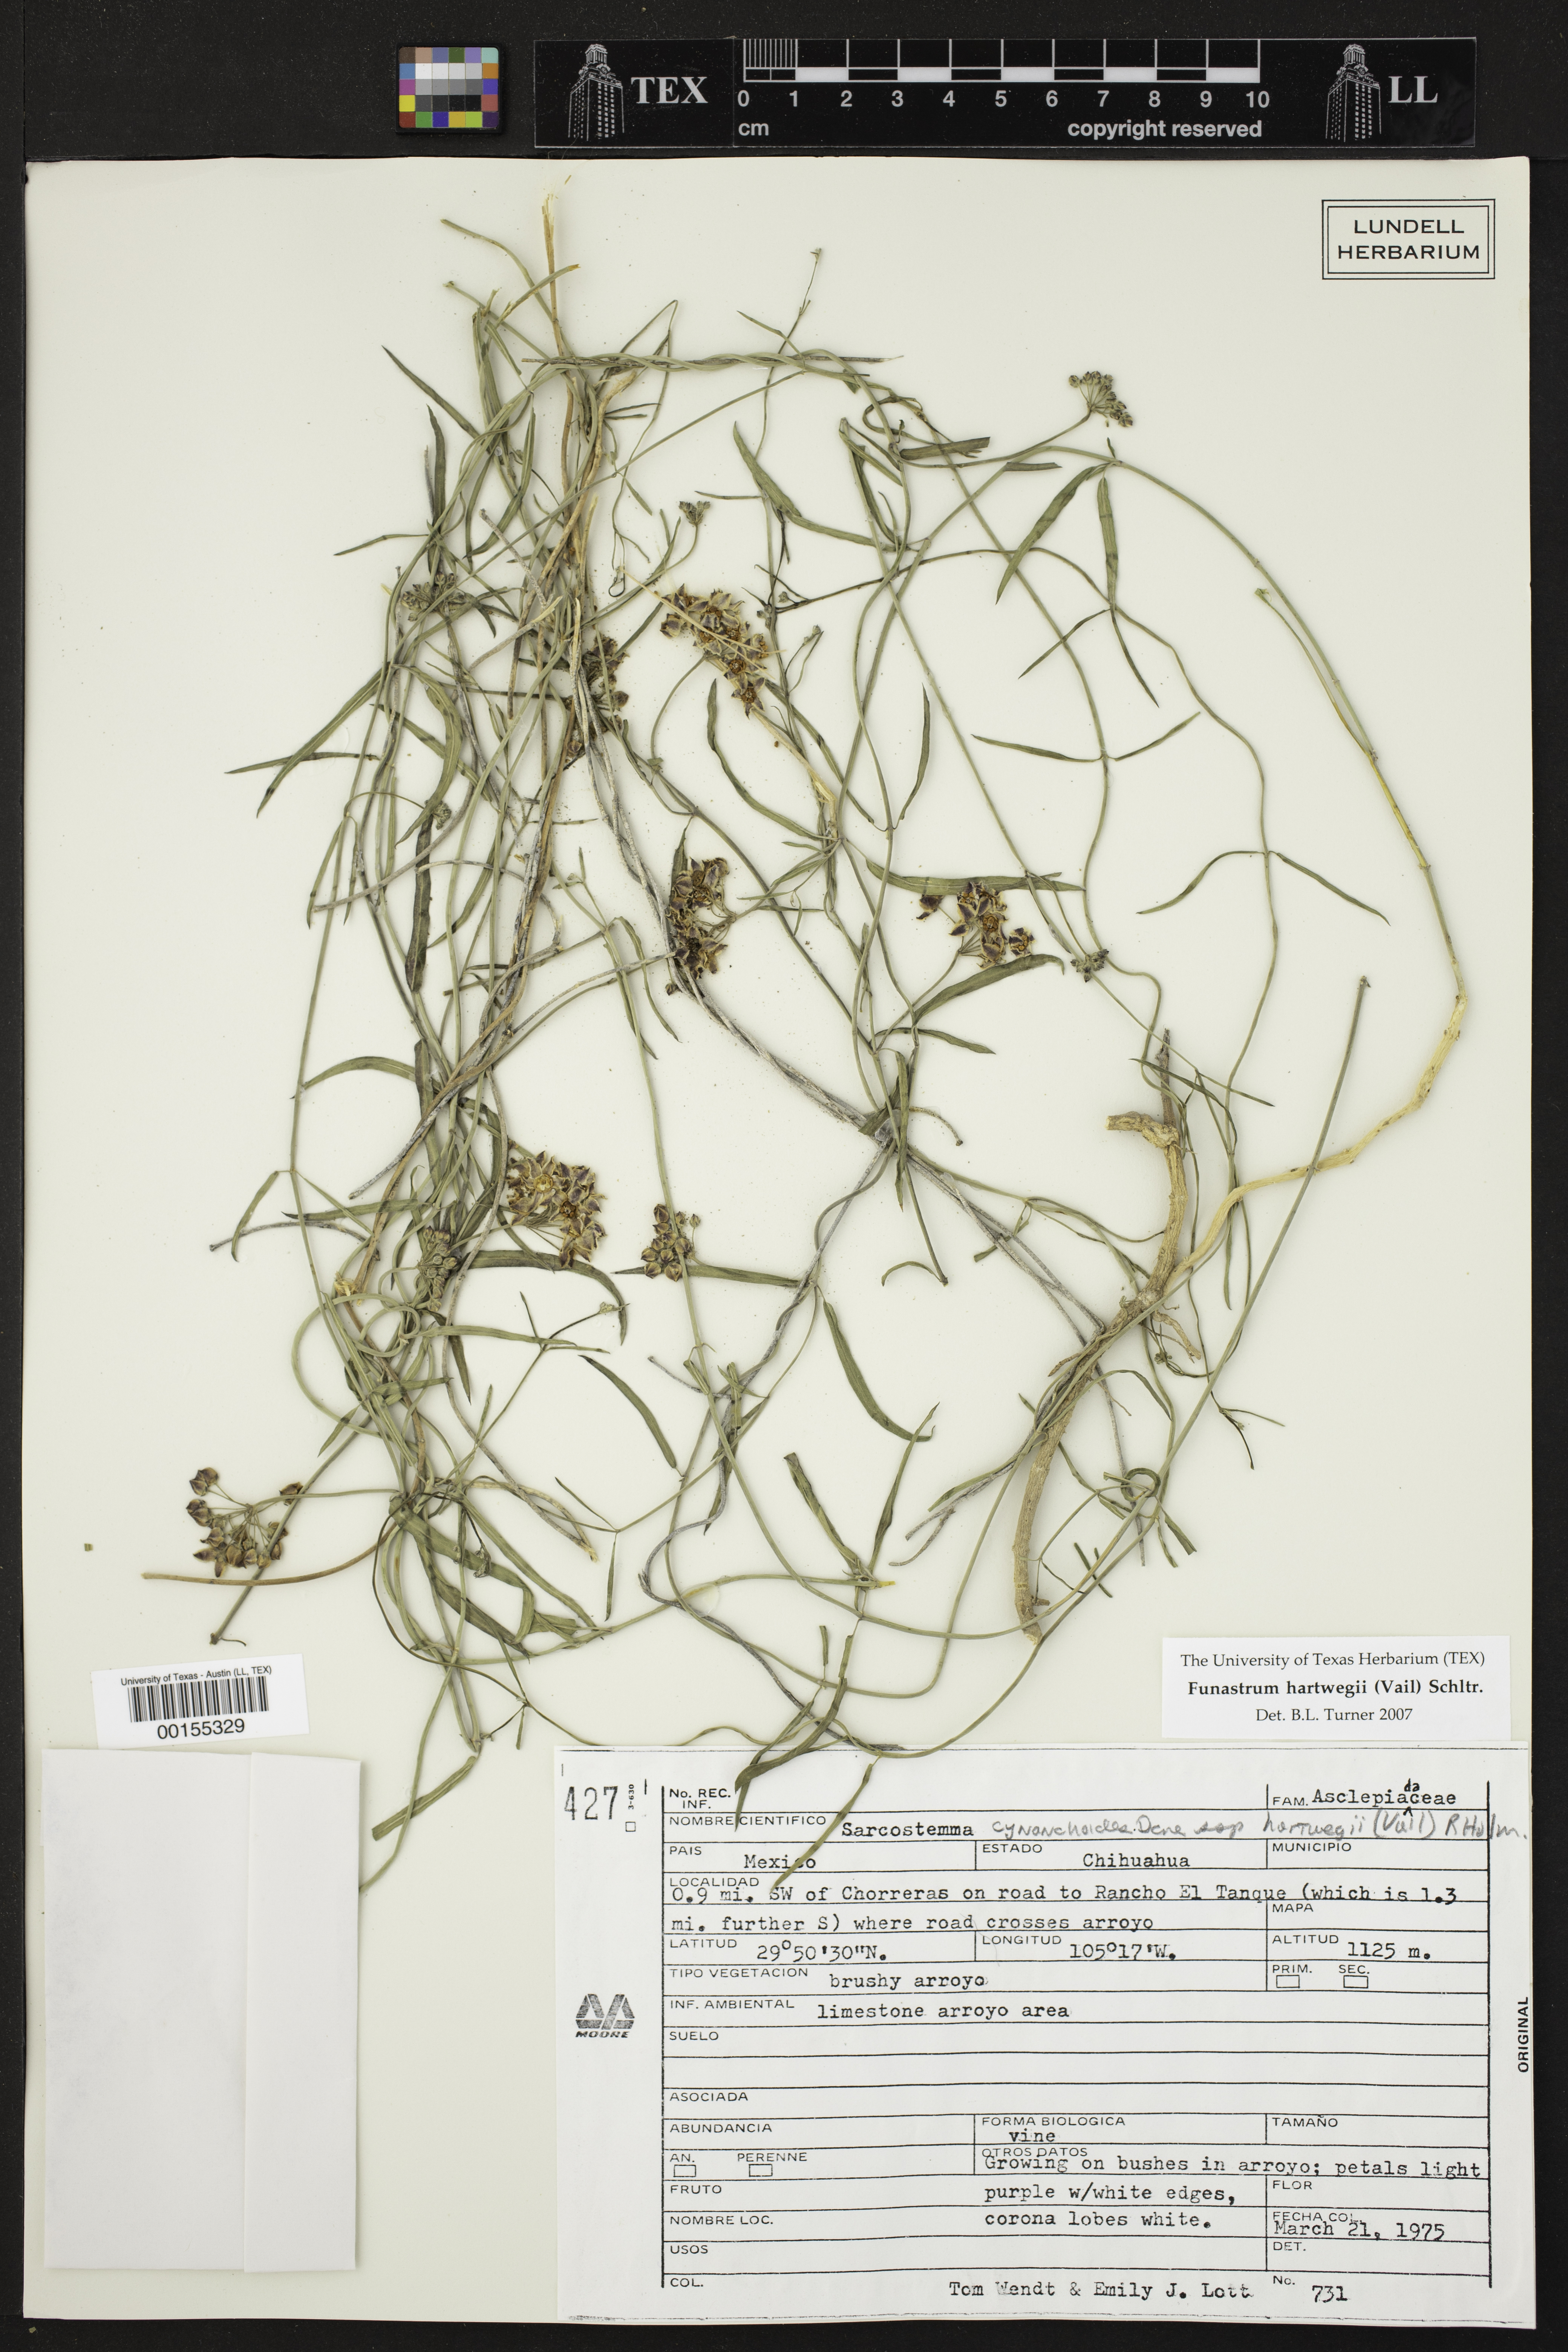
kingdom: Plantae
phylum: Tracheophyta
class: Magnoliopsida
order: Gentianales
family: Apocynaceae
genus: Funastrum
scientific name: Funastrum heterophyllum
